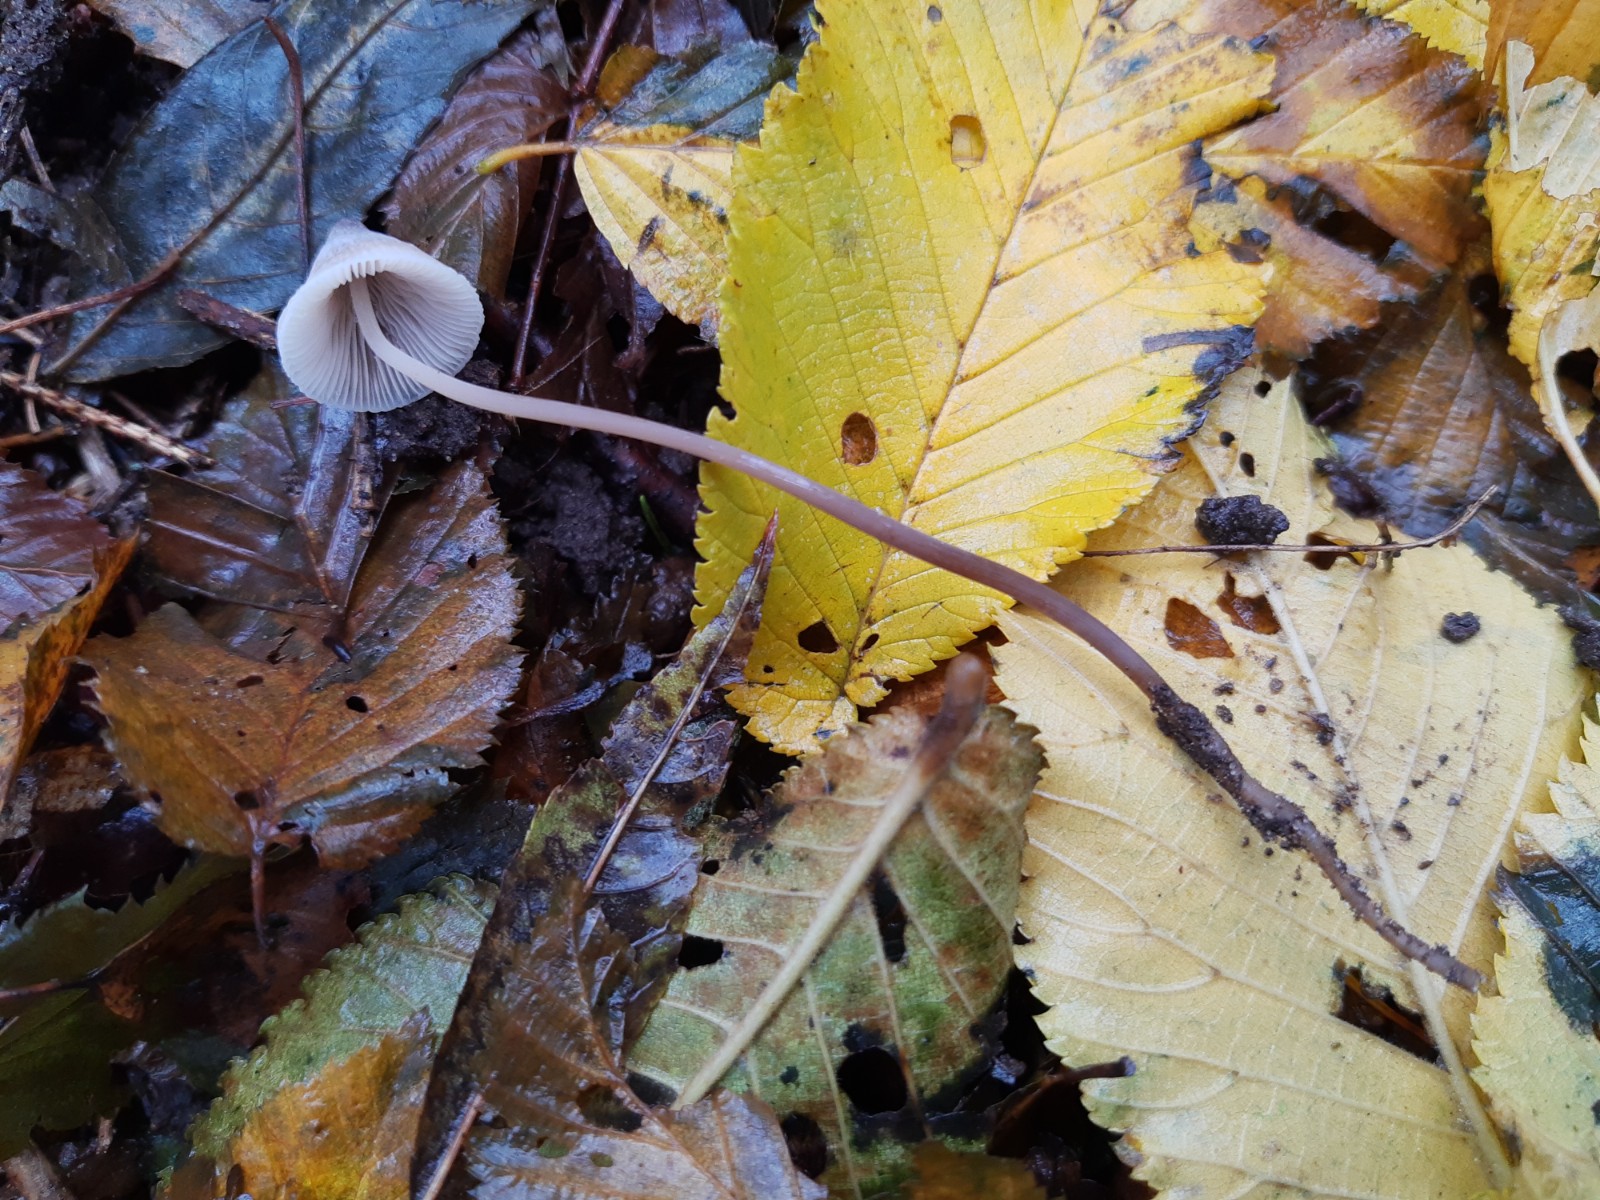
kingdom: Fungi
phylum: Basidiomycota
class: Agaricomycetes
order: Agaricales
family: Mycenaceae
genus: Mycena
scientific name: Mycena filopes
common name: jod-huesvamp
